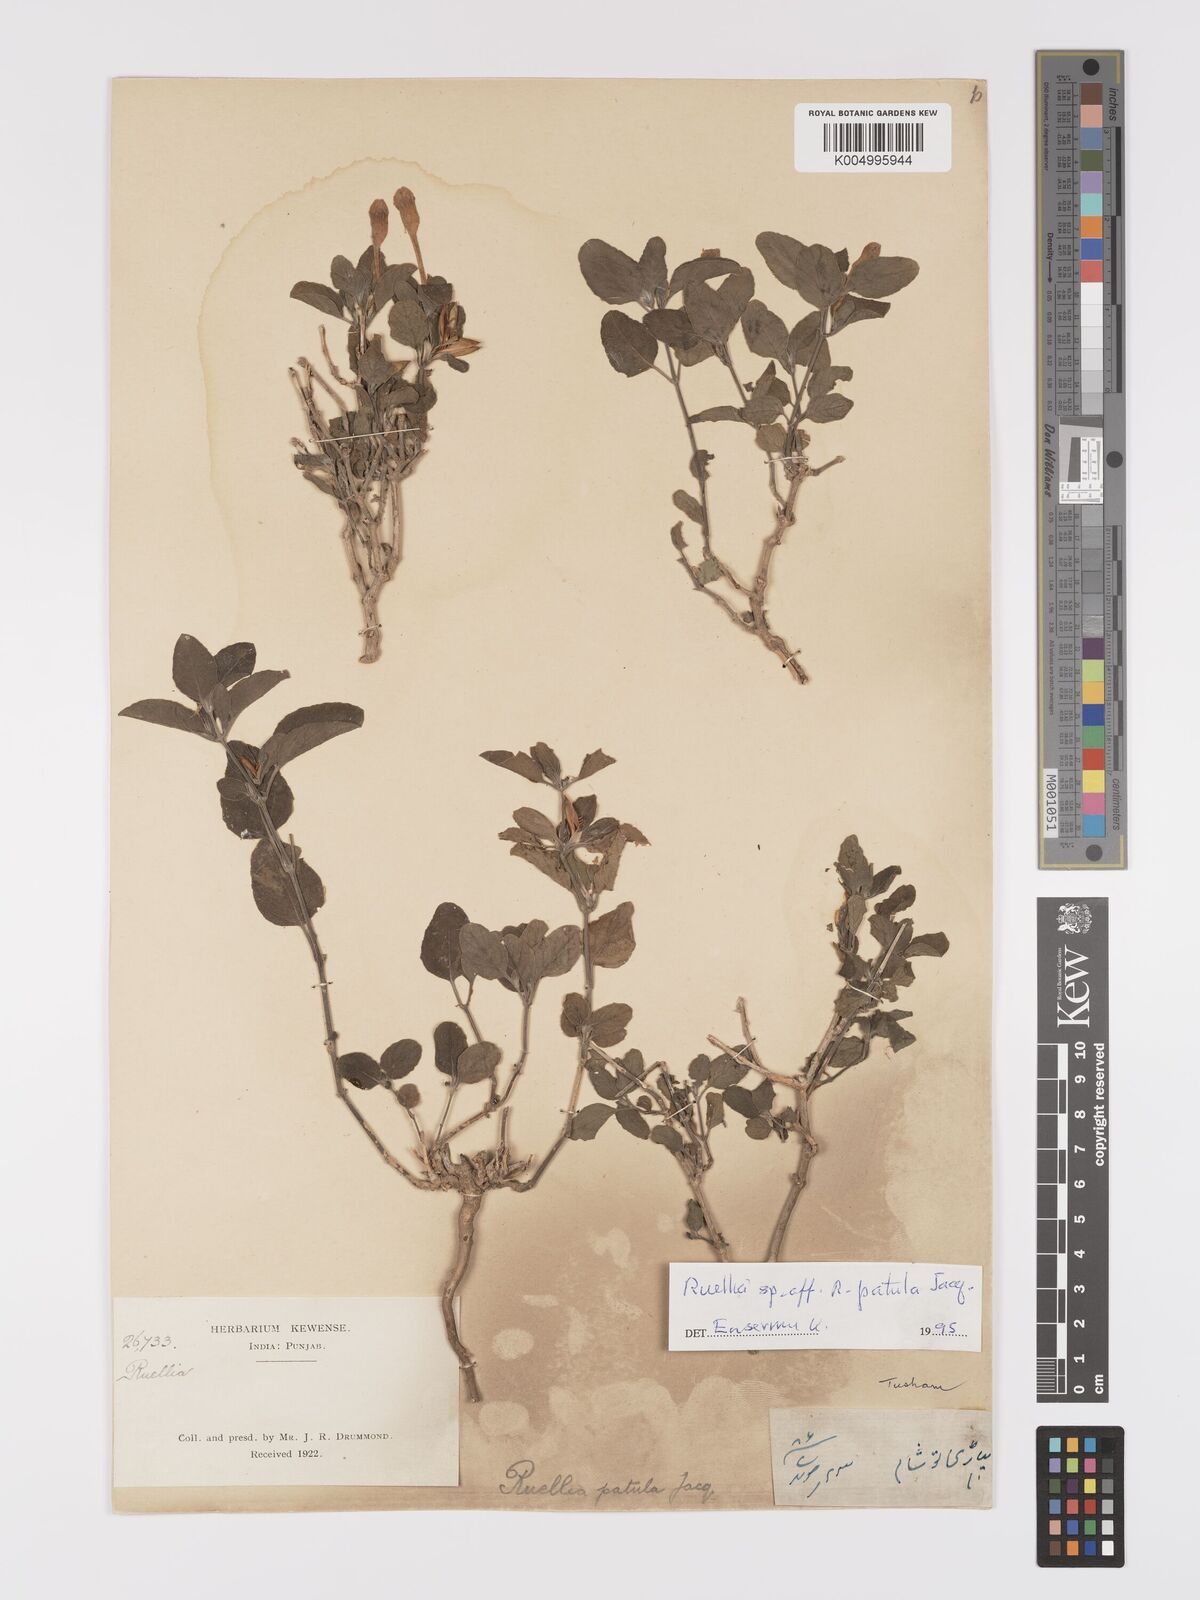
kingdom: Plantae
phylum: Tracheophyta
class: Magnoliopsida
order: Lamiales
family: Acanthaceae
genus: Ruellia
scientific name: Ruellia pseudopatula
